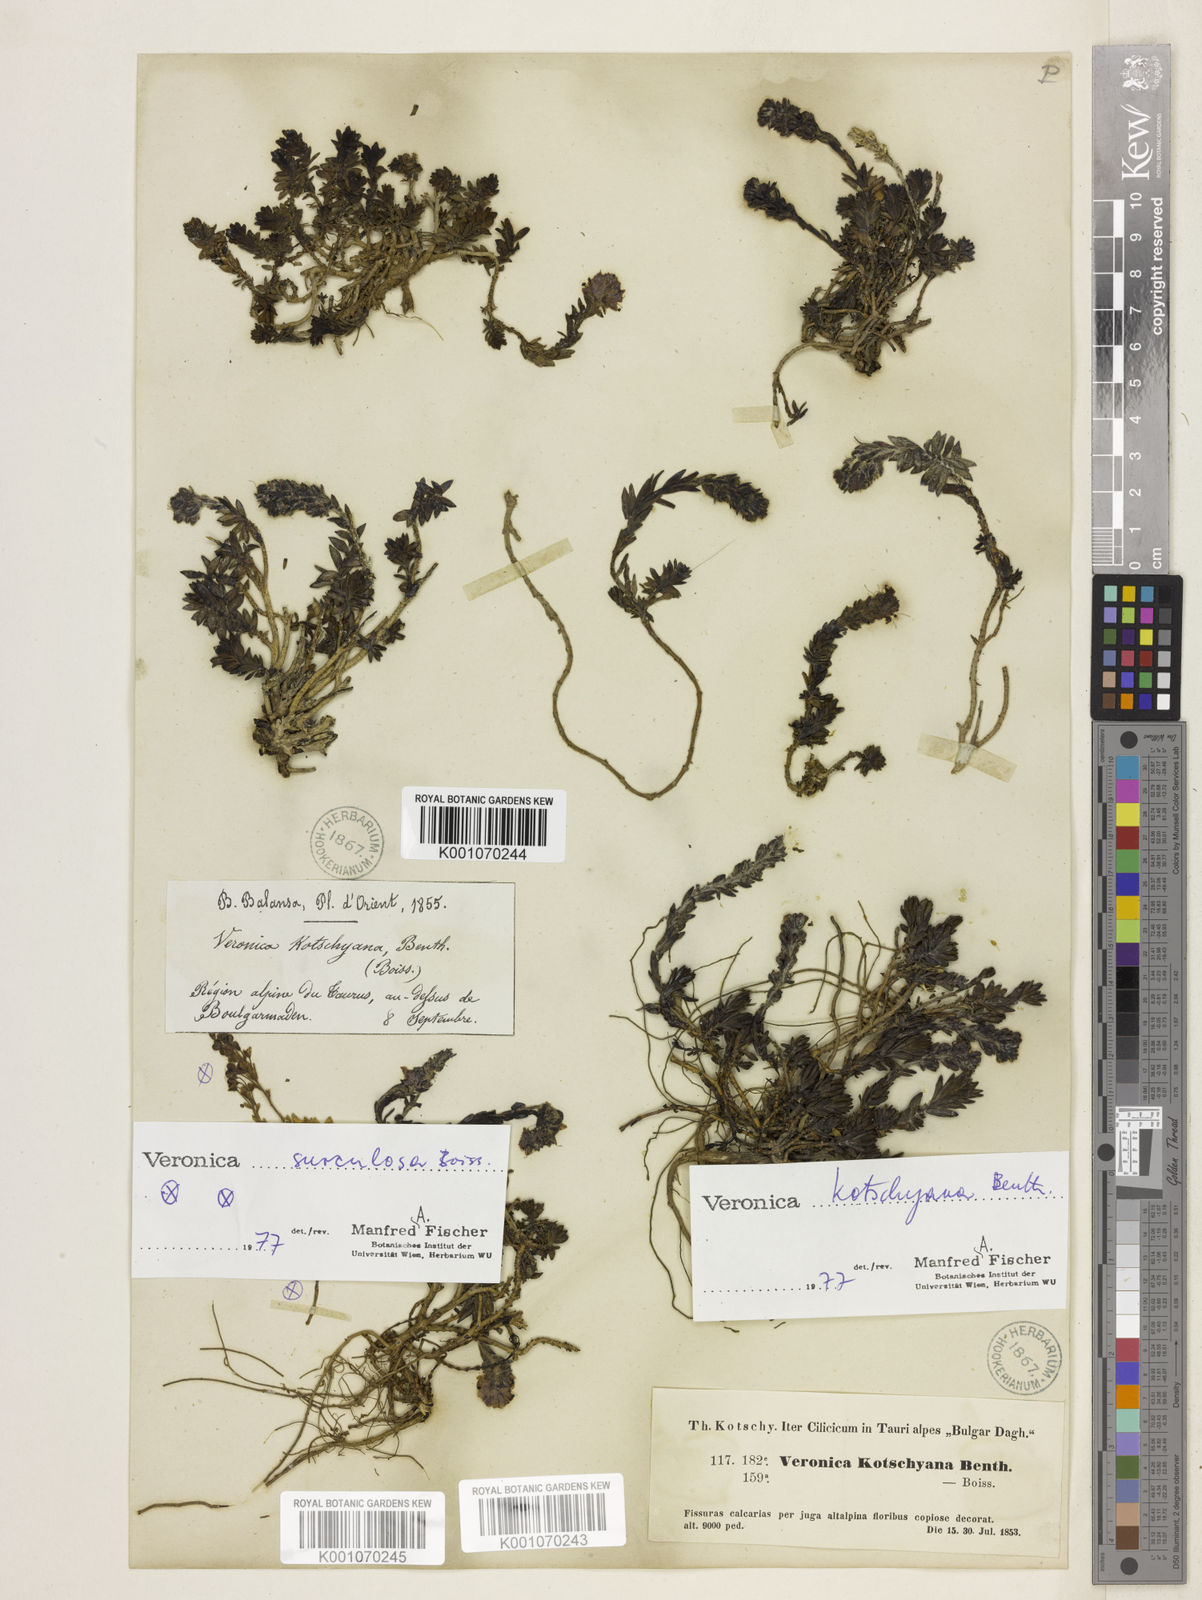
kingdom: Plantae
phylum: Tracheophyta
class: Magnoliopsida
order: Lamiales
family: Plantaginaceae
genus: Veronica
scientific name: Veronica kotschyana
